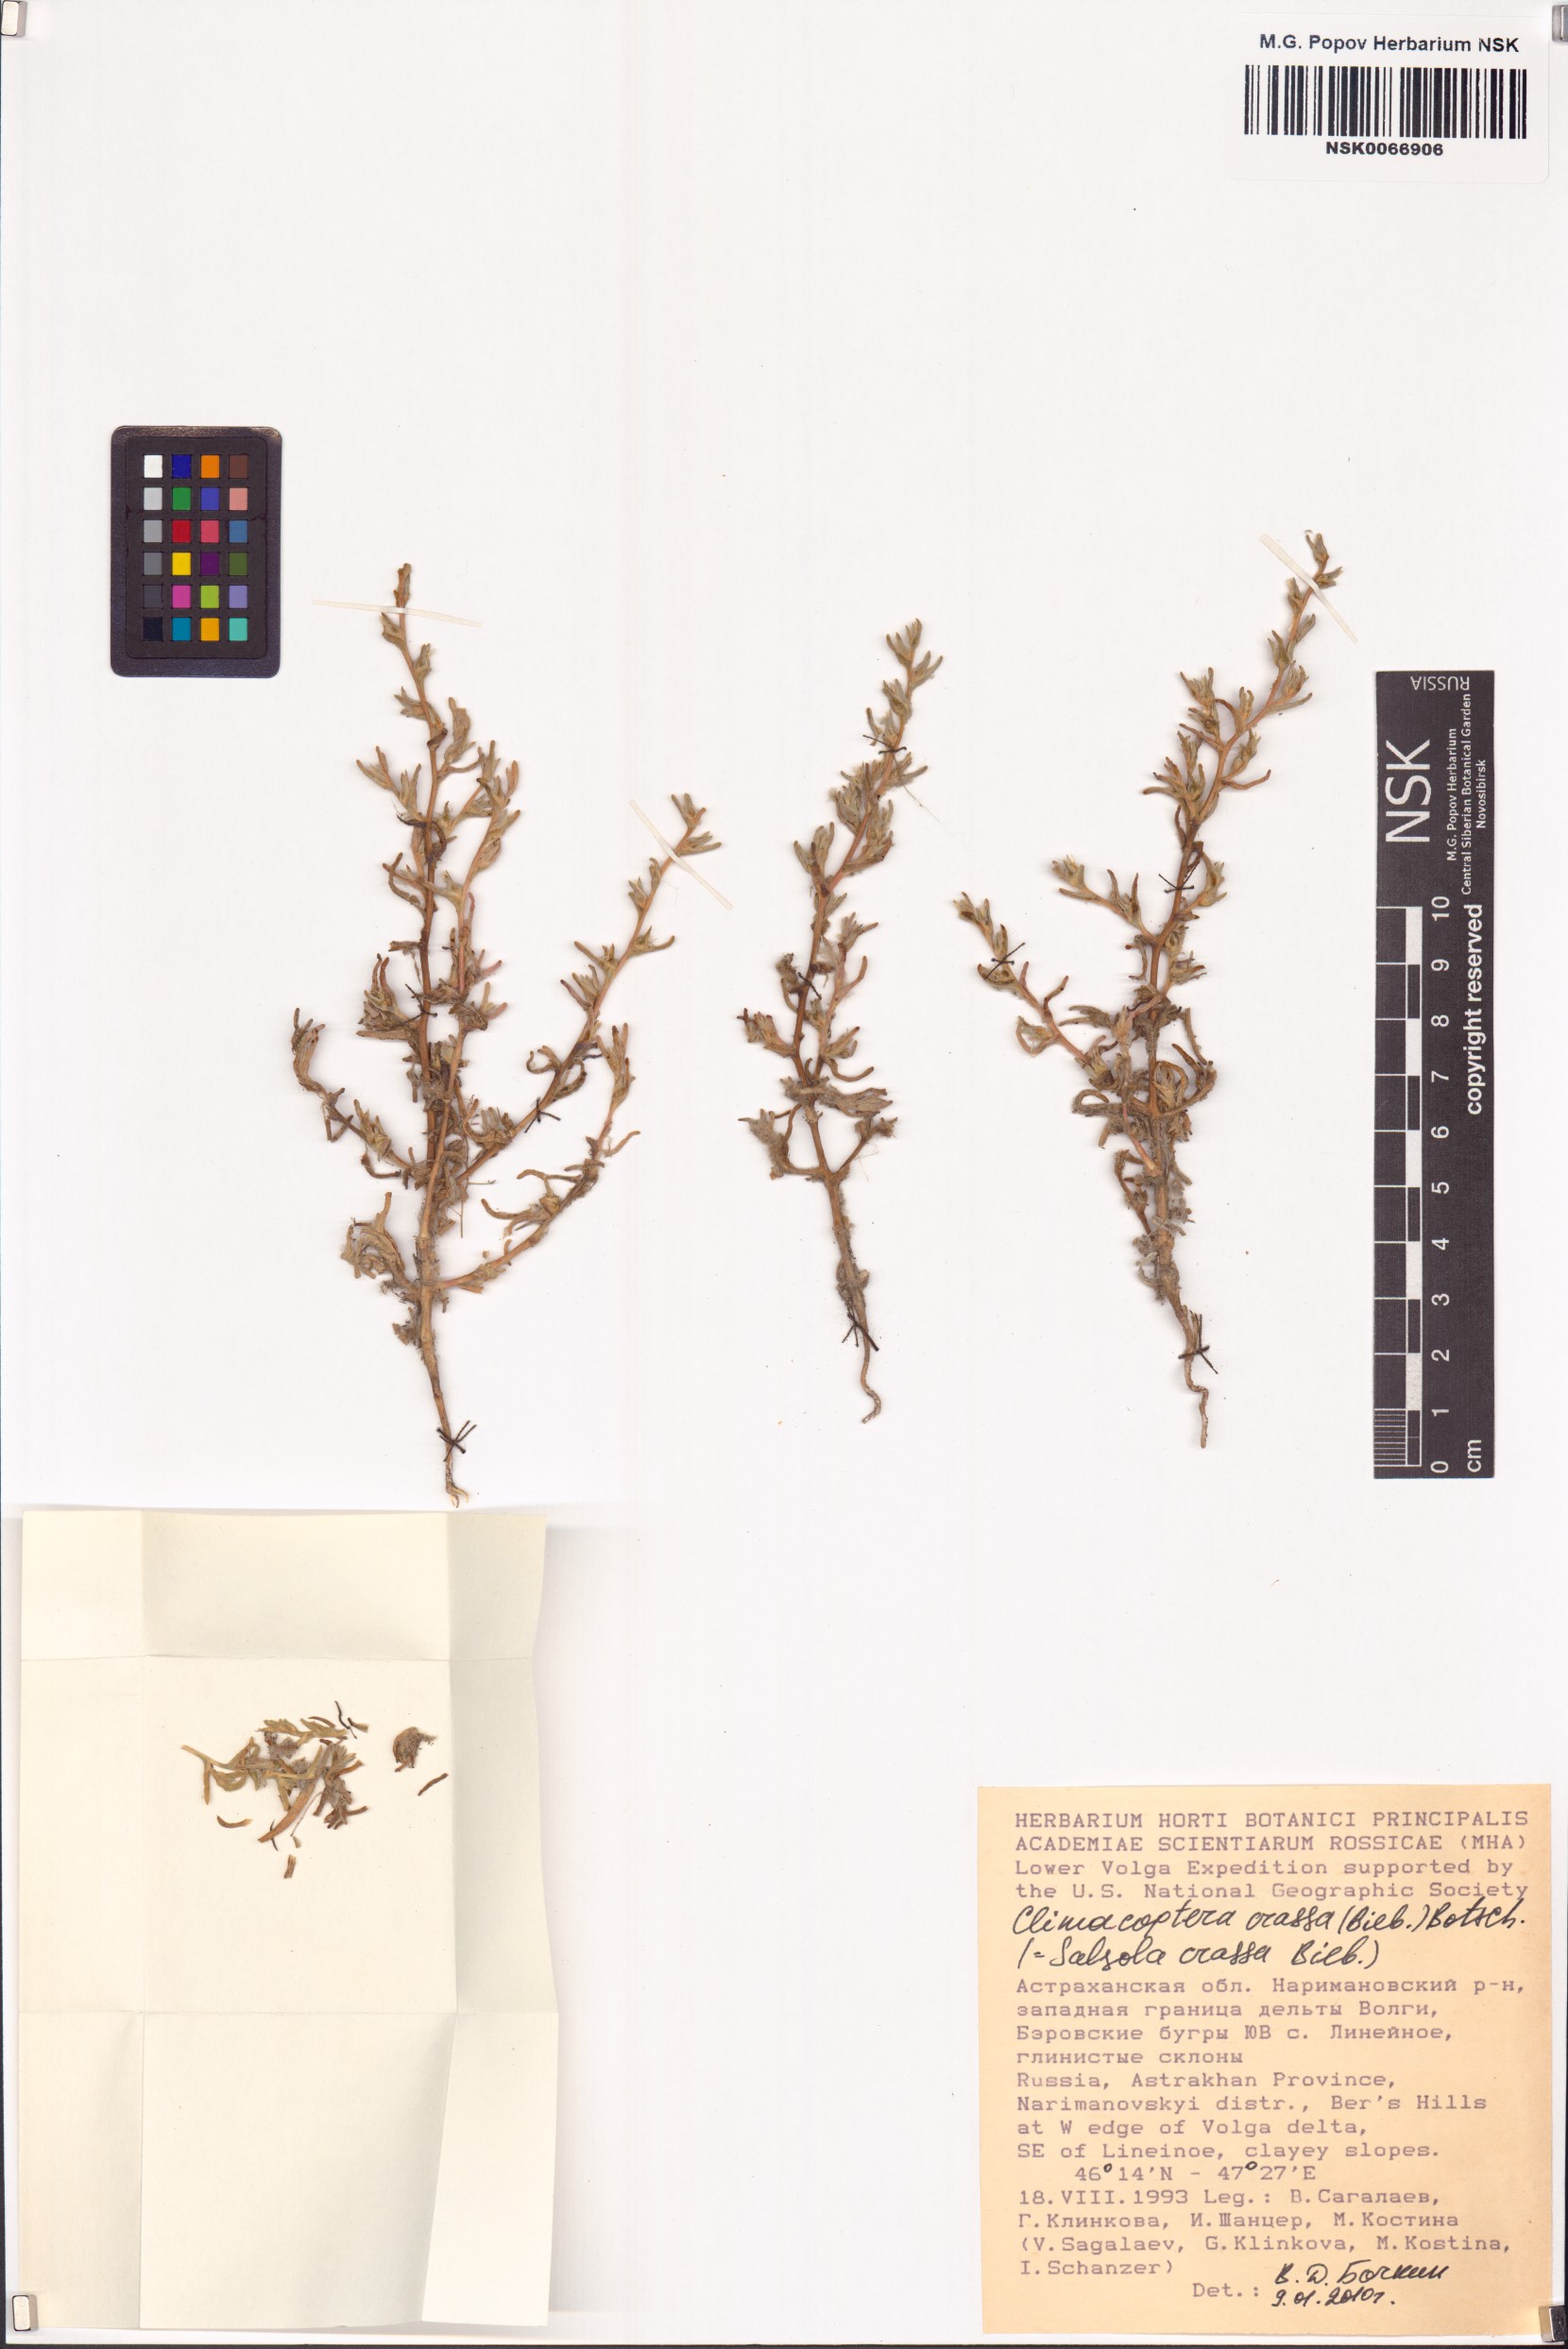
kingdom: Plantae
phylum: Tracheophyta
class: Magnoliopsida
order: Caryophyllales
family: Amaranthaceae
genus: Climacoptera
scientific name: Climacoptera crassa
